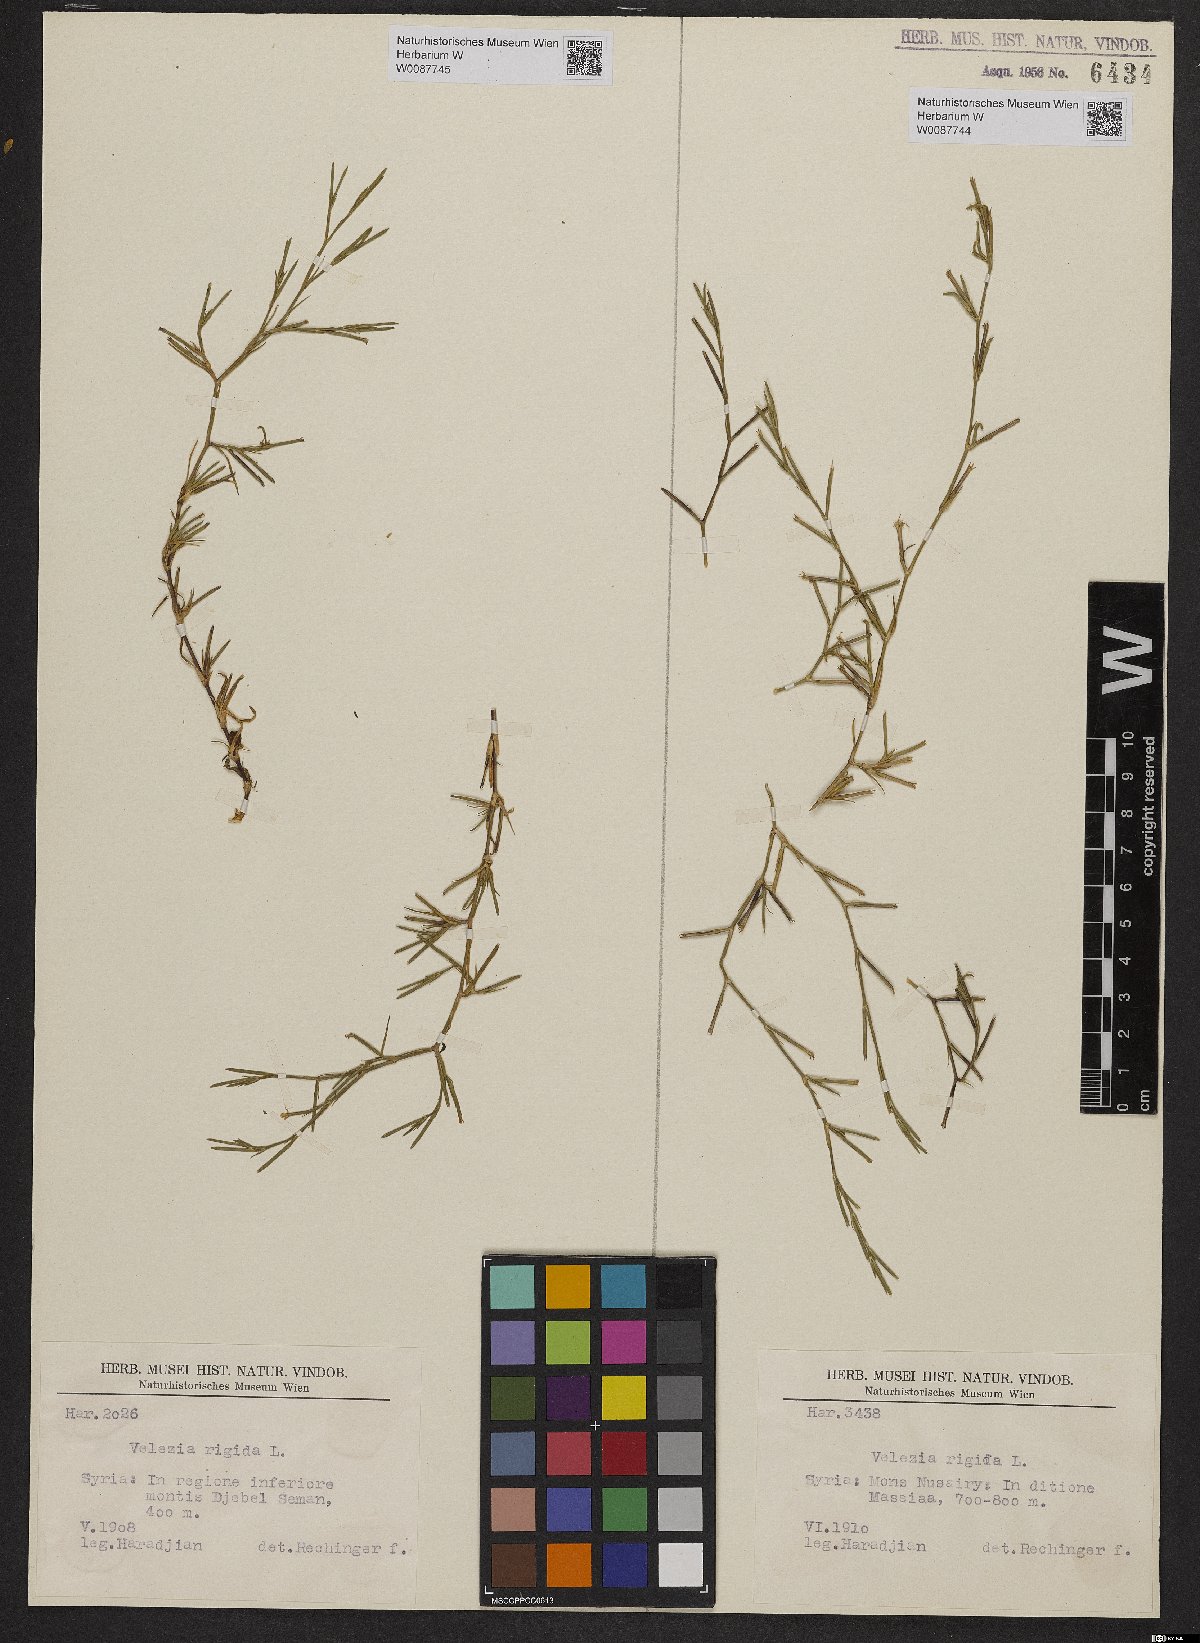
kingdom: Plantae
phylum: Tracheophyta
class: Magnoliopsida
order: Caryophyllales
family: Caryophyllaceae
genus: Dianthus
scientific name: Dianthus nudiflorus
